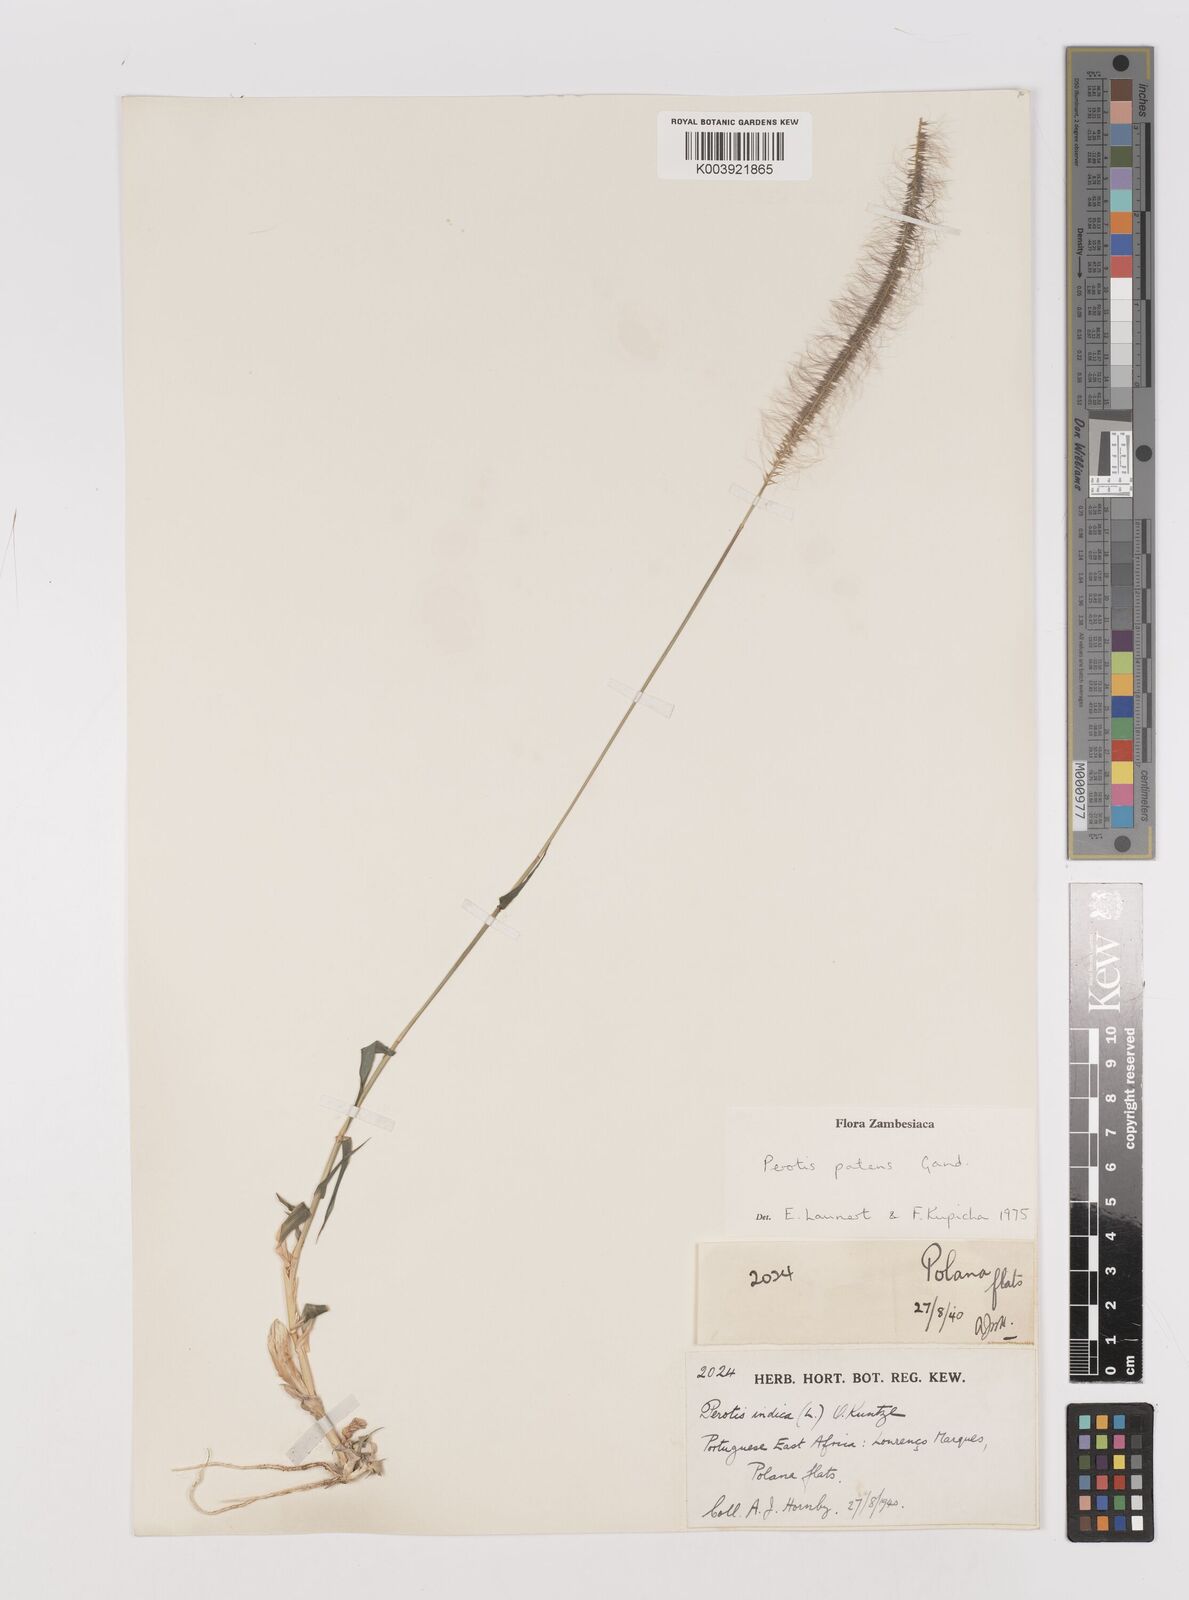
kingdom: Plantae
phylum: Tracheophyta
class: Liliopsida
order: Poales
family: Poaceae
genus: Perotis
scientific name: Perotis patens
